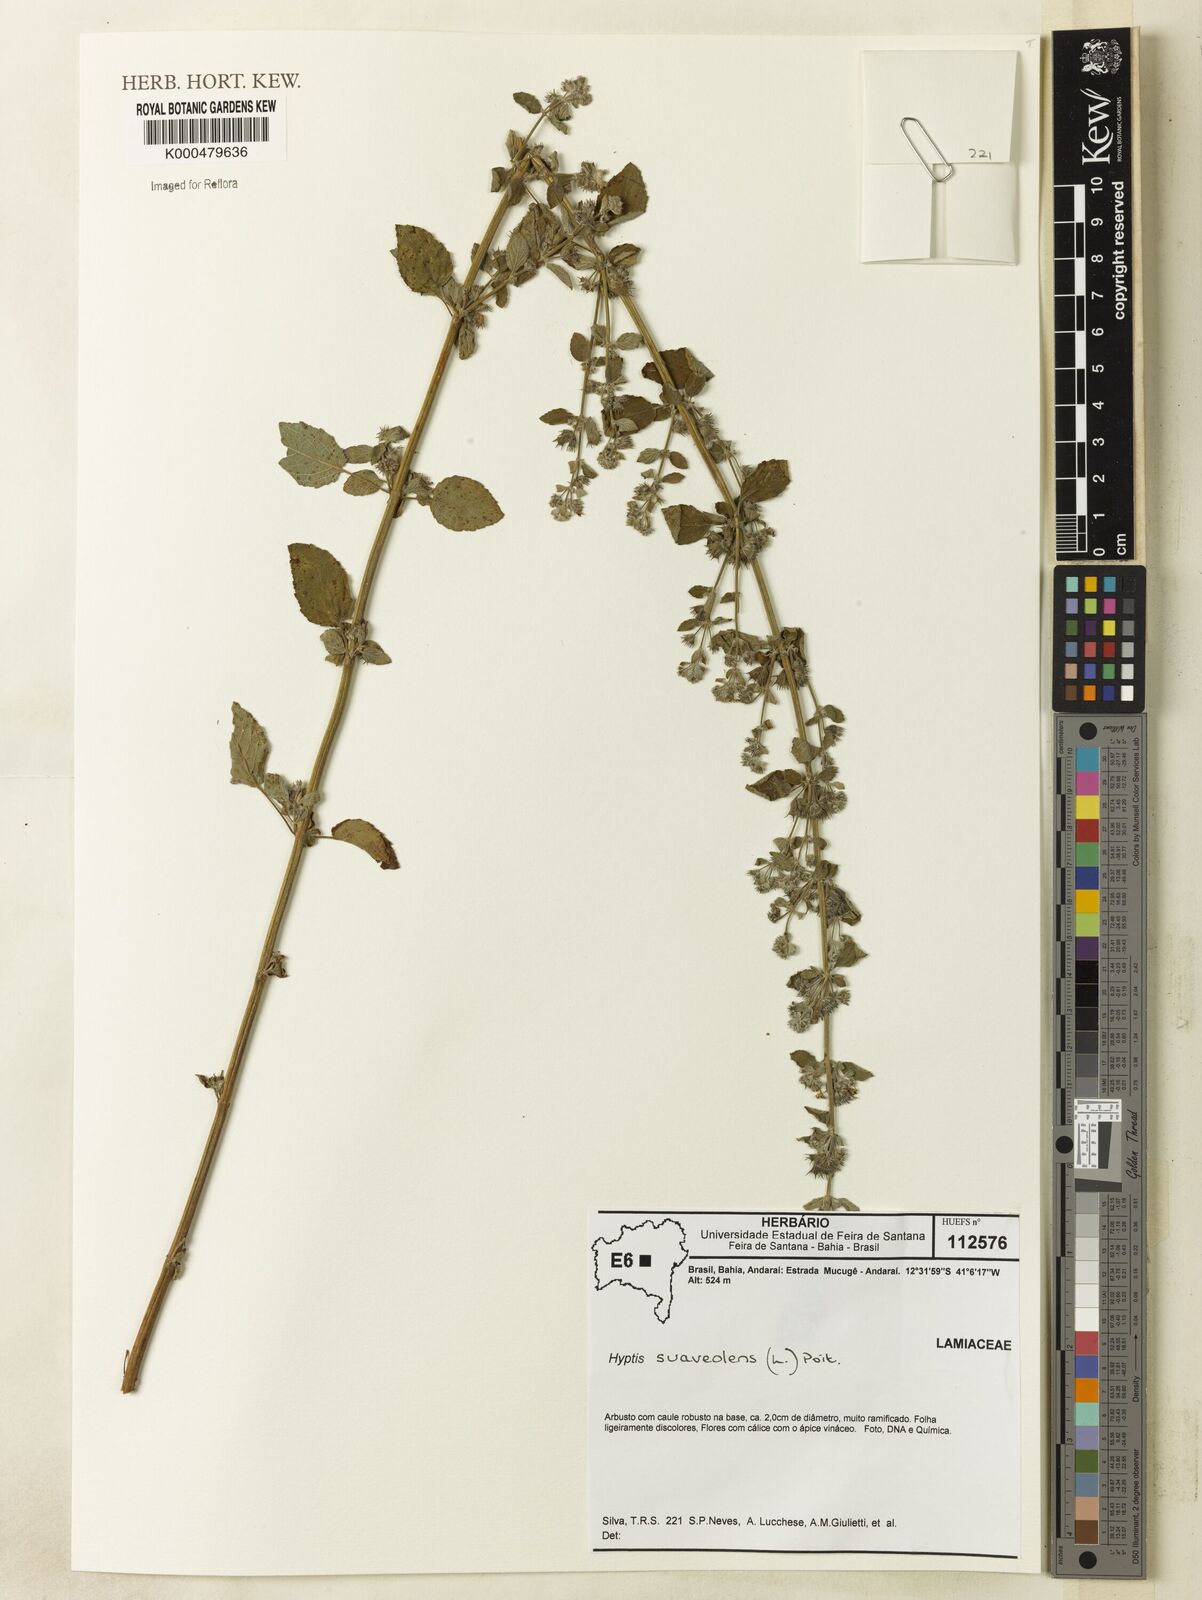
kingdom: Plantae
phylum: Tracheophyta
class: Magnoliopsida
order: Lamiales
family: Lamiaceae
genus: Mesosphaerum
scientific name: Mesosphaerum suaveolens
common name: Pignut
